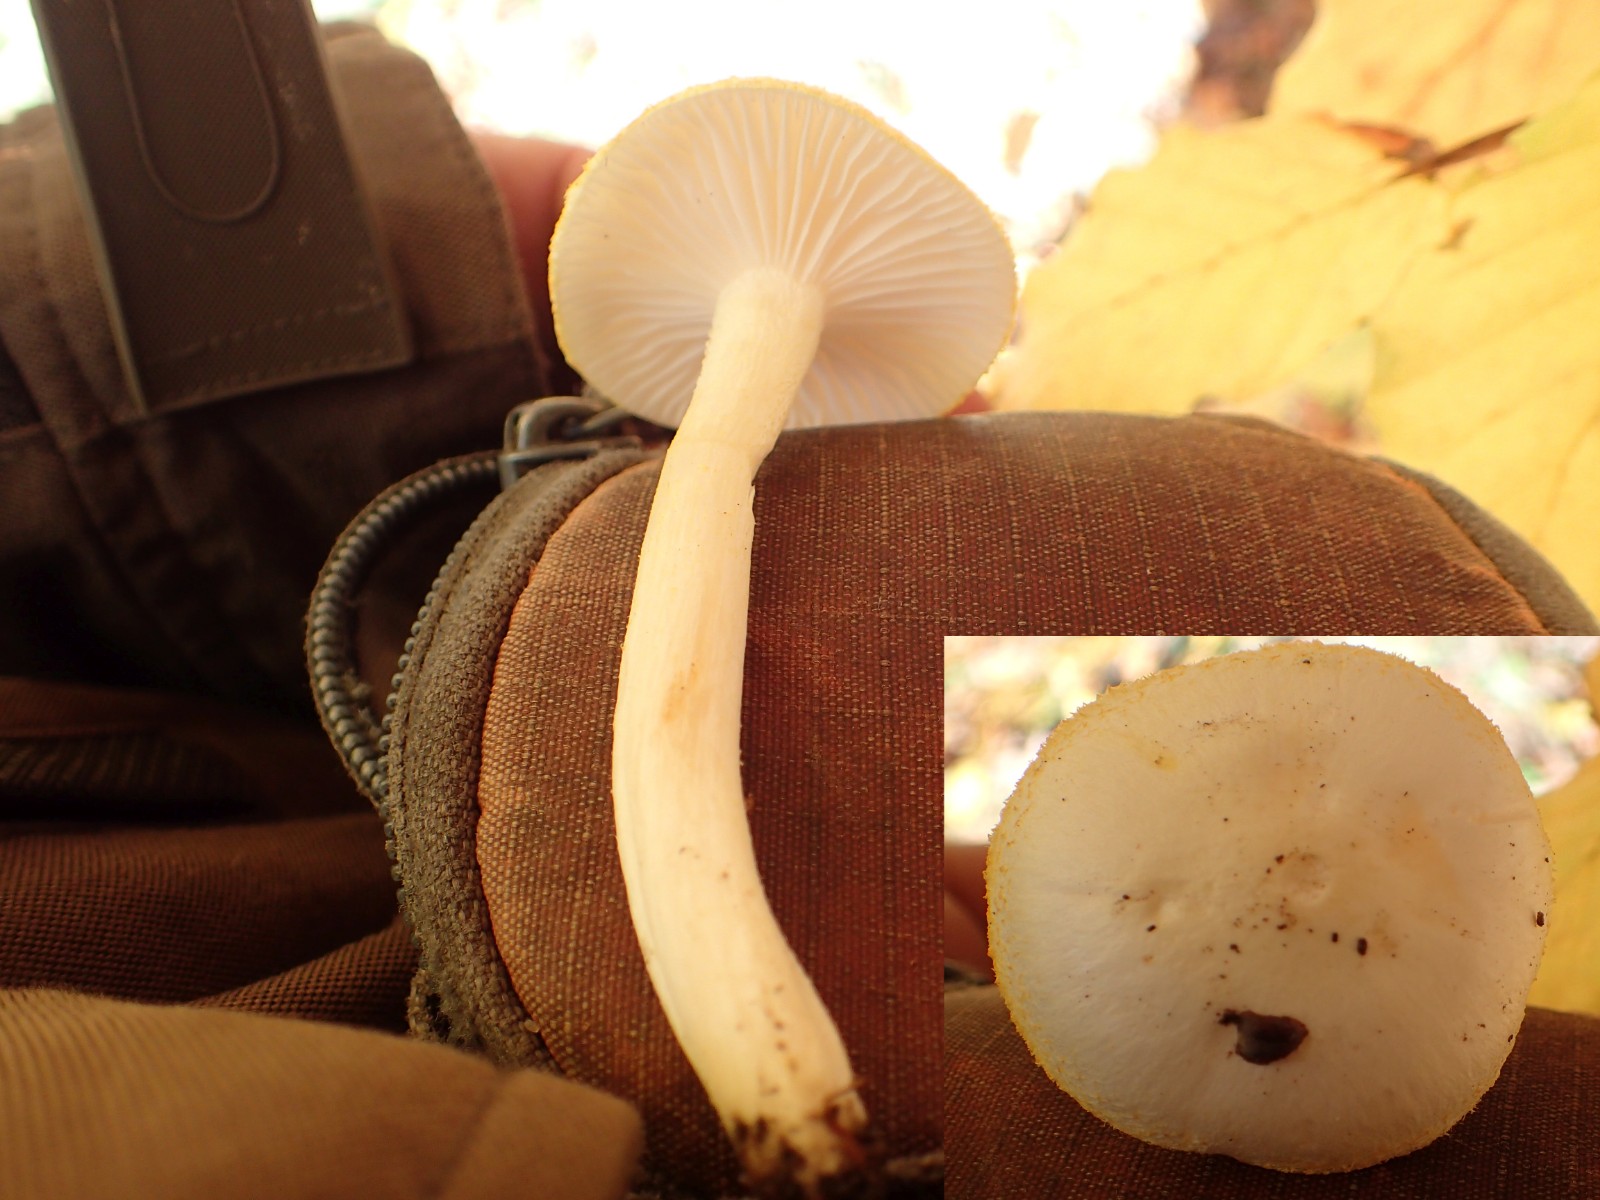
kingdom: Fungi
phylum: Basidiomycota
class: Agaricomycetes
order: Agaricales
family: Hygrophoraceae
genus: Hygrophorus
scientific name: Hygrophorus chrysodon
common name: gulfnugget sneglehat
